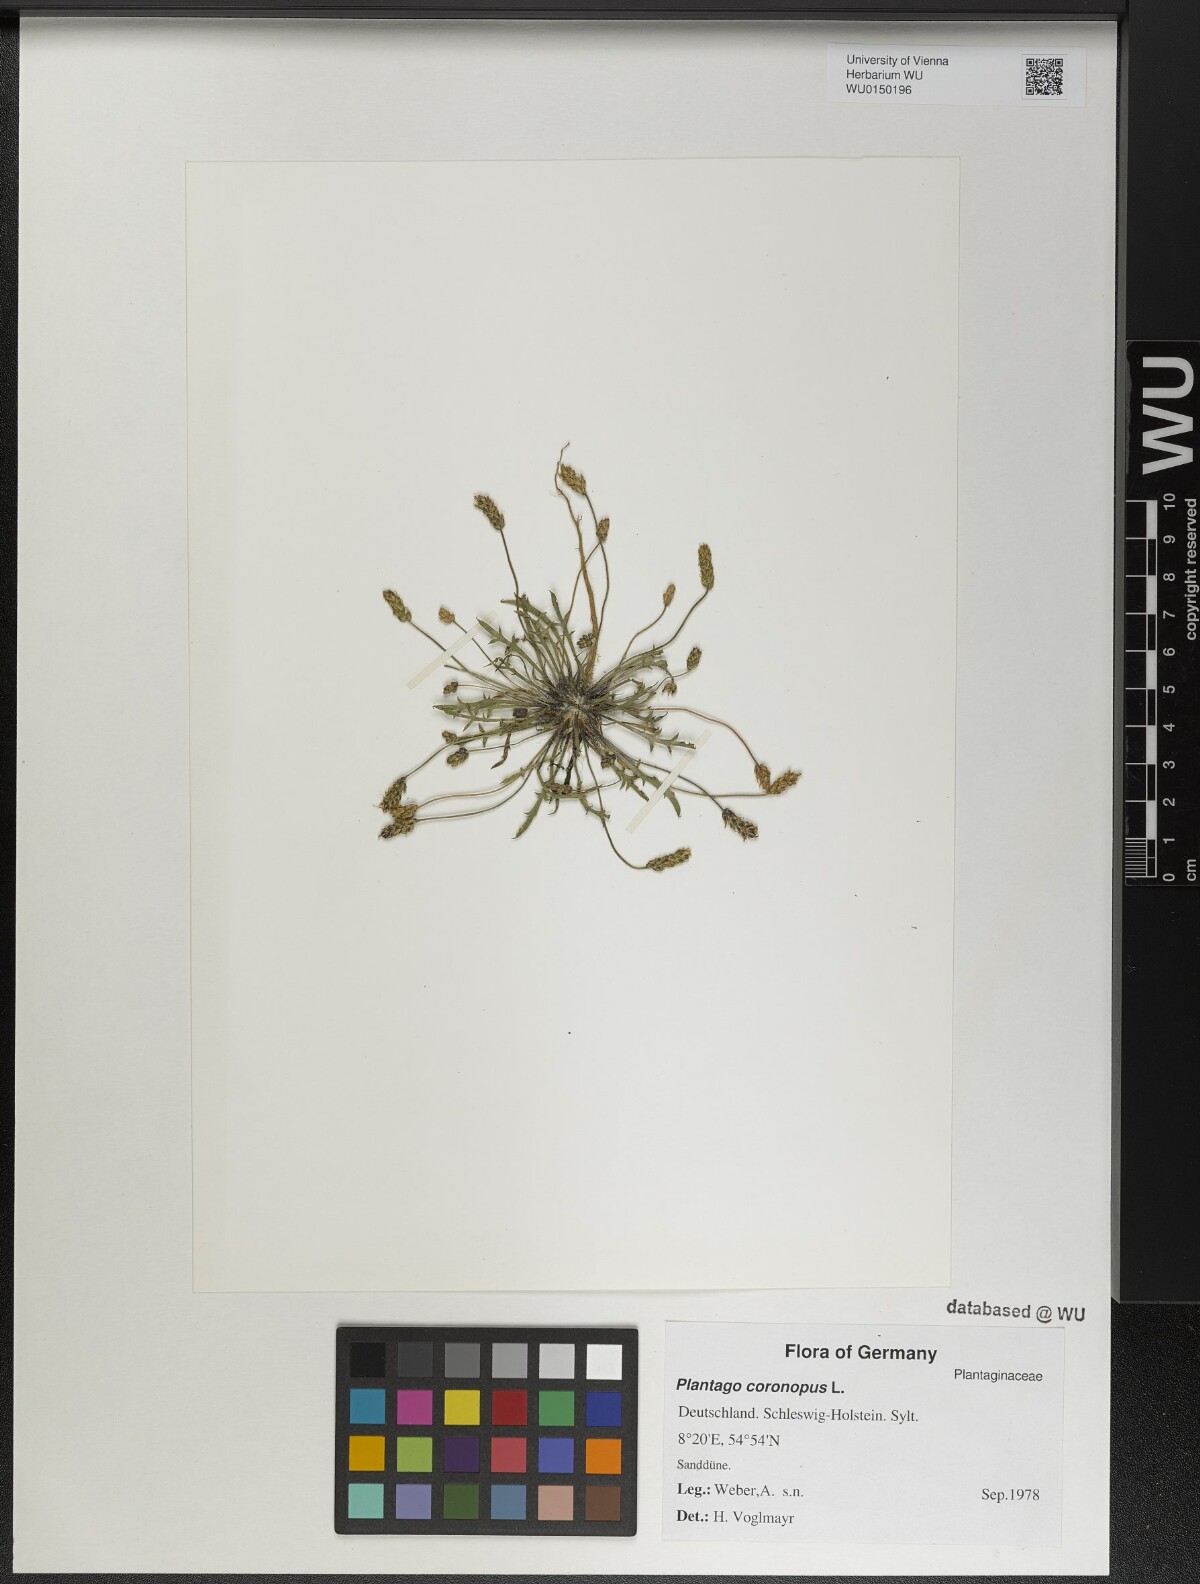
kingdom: Plantae
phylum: Tracheophyta
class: Magnoliopsida
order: Lamiales
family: Plantaginaceae
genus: Plantago
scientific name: Plantago coronopus
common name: Buck's-horn plantain
